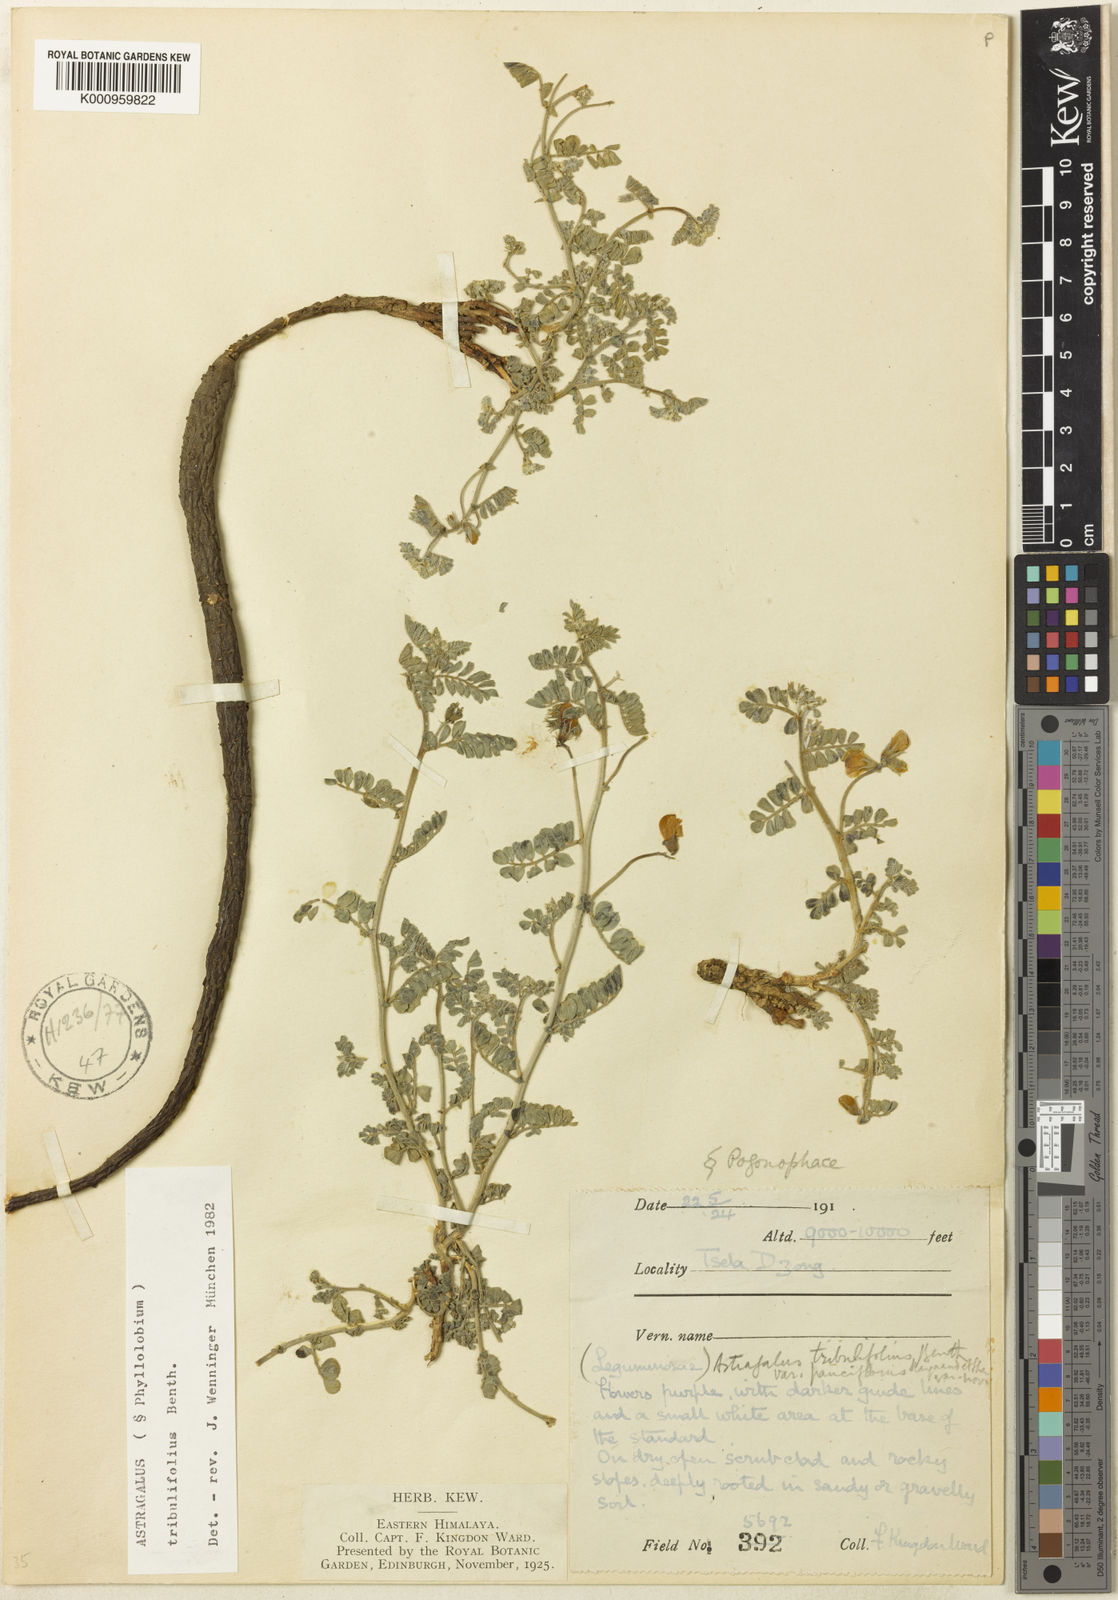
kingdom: Plantae
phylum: Tracheophyta
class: Magnoliopsida
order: Fabales
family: Fabaceae
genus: Astragalus
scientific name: Astragalus
